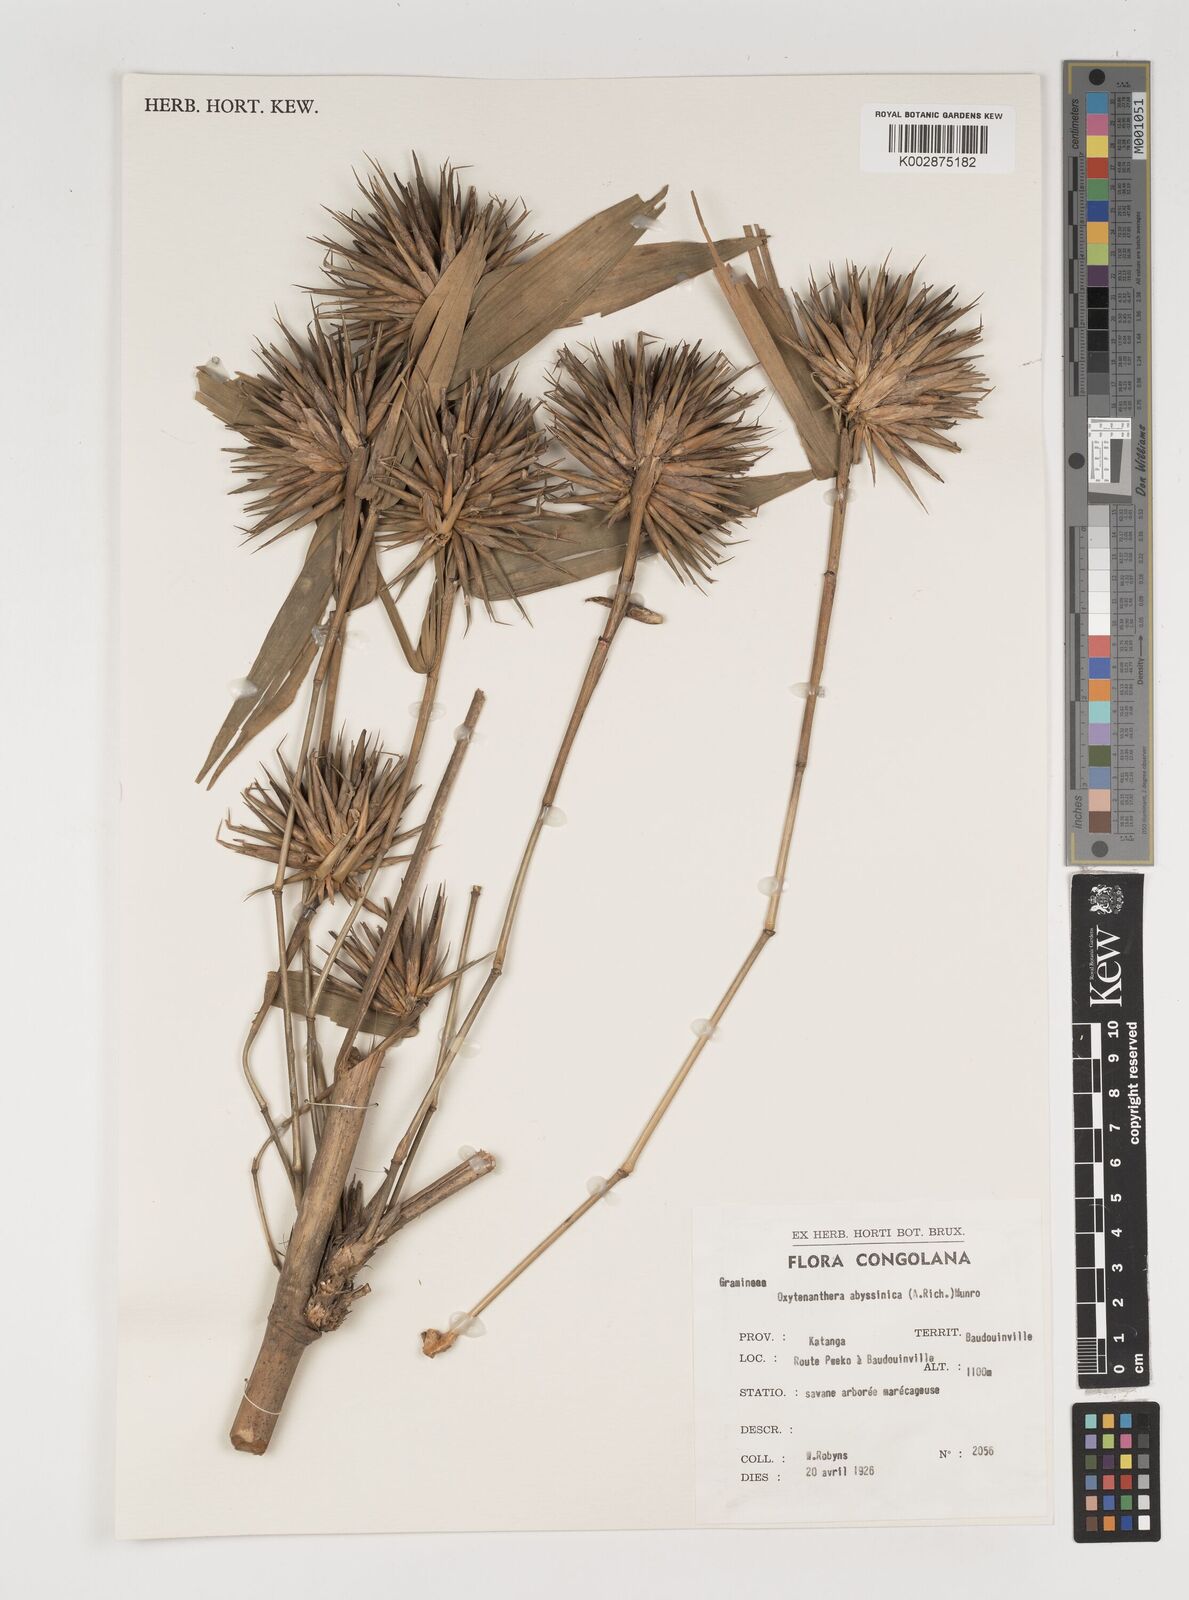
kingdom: Plantae
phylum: Tracheophyta
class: Liliopsida
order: Poales
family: Poaceae
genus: Oxytenanthera
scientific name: Oxytenanthera abyssinica
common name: Wine bamboo
